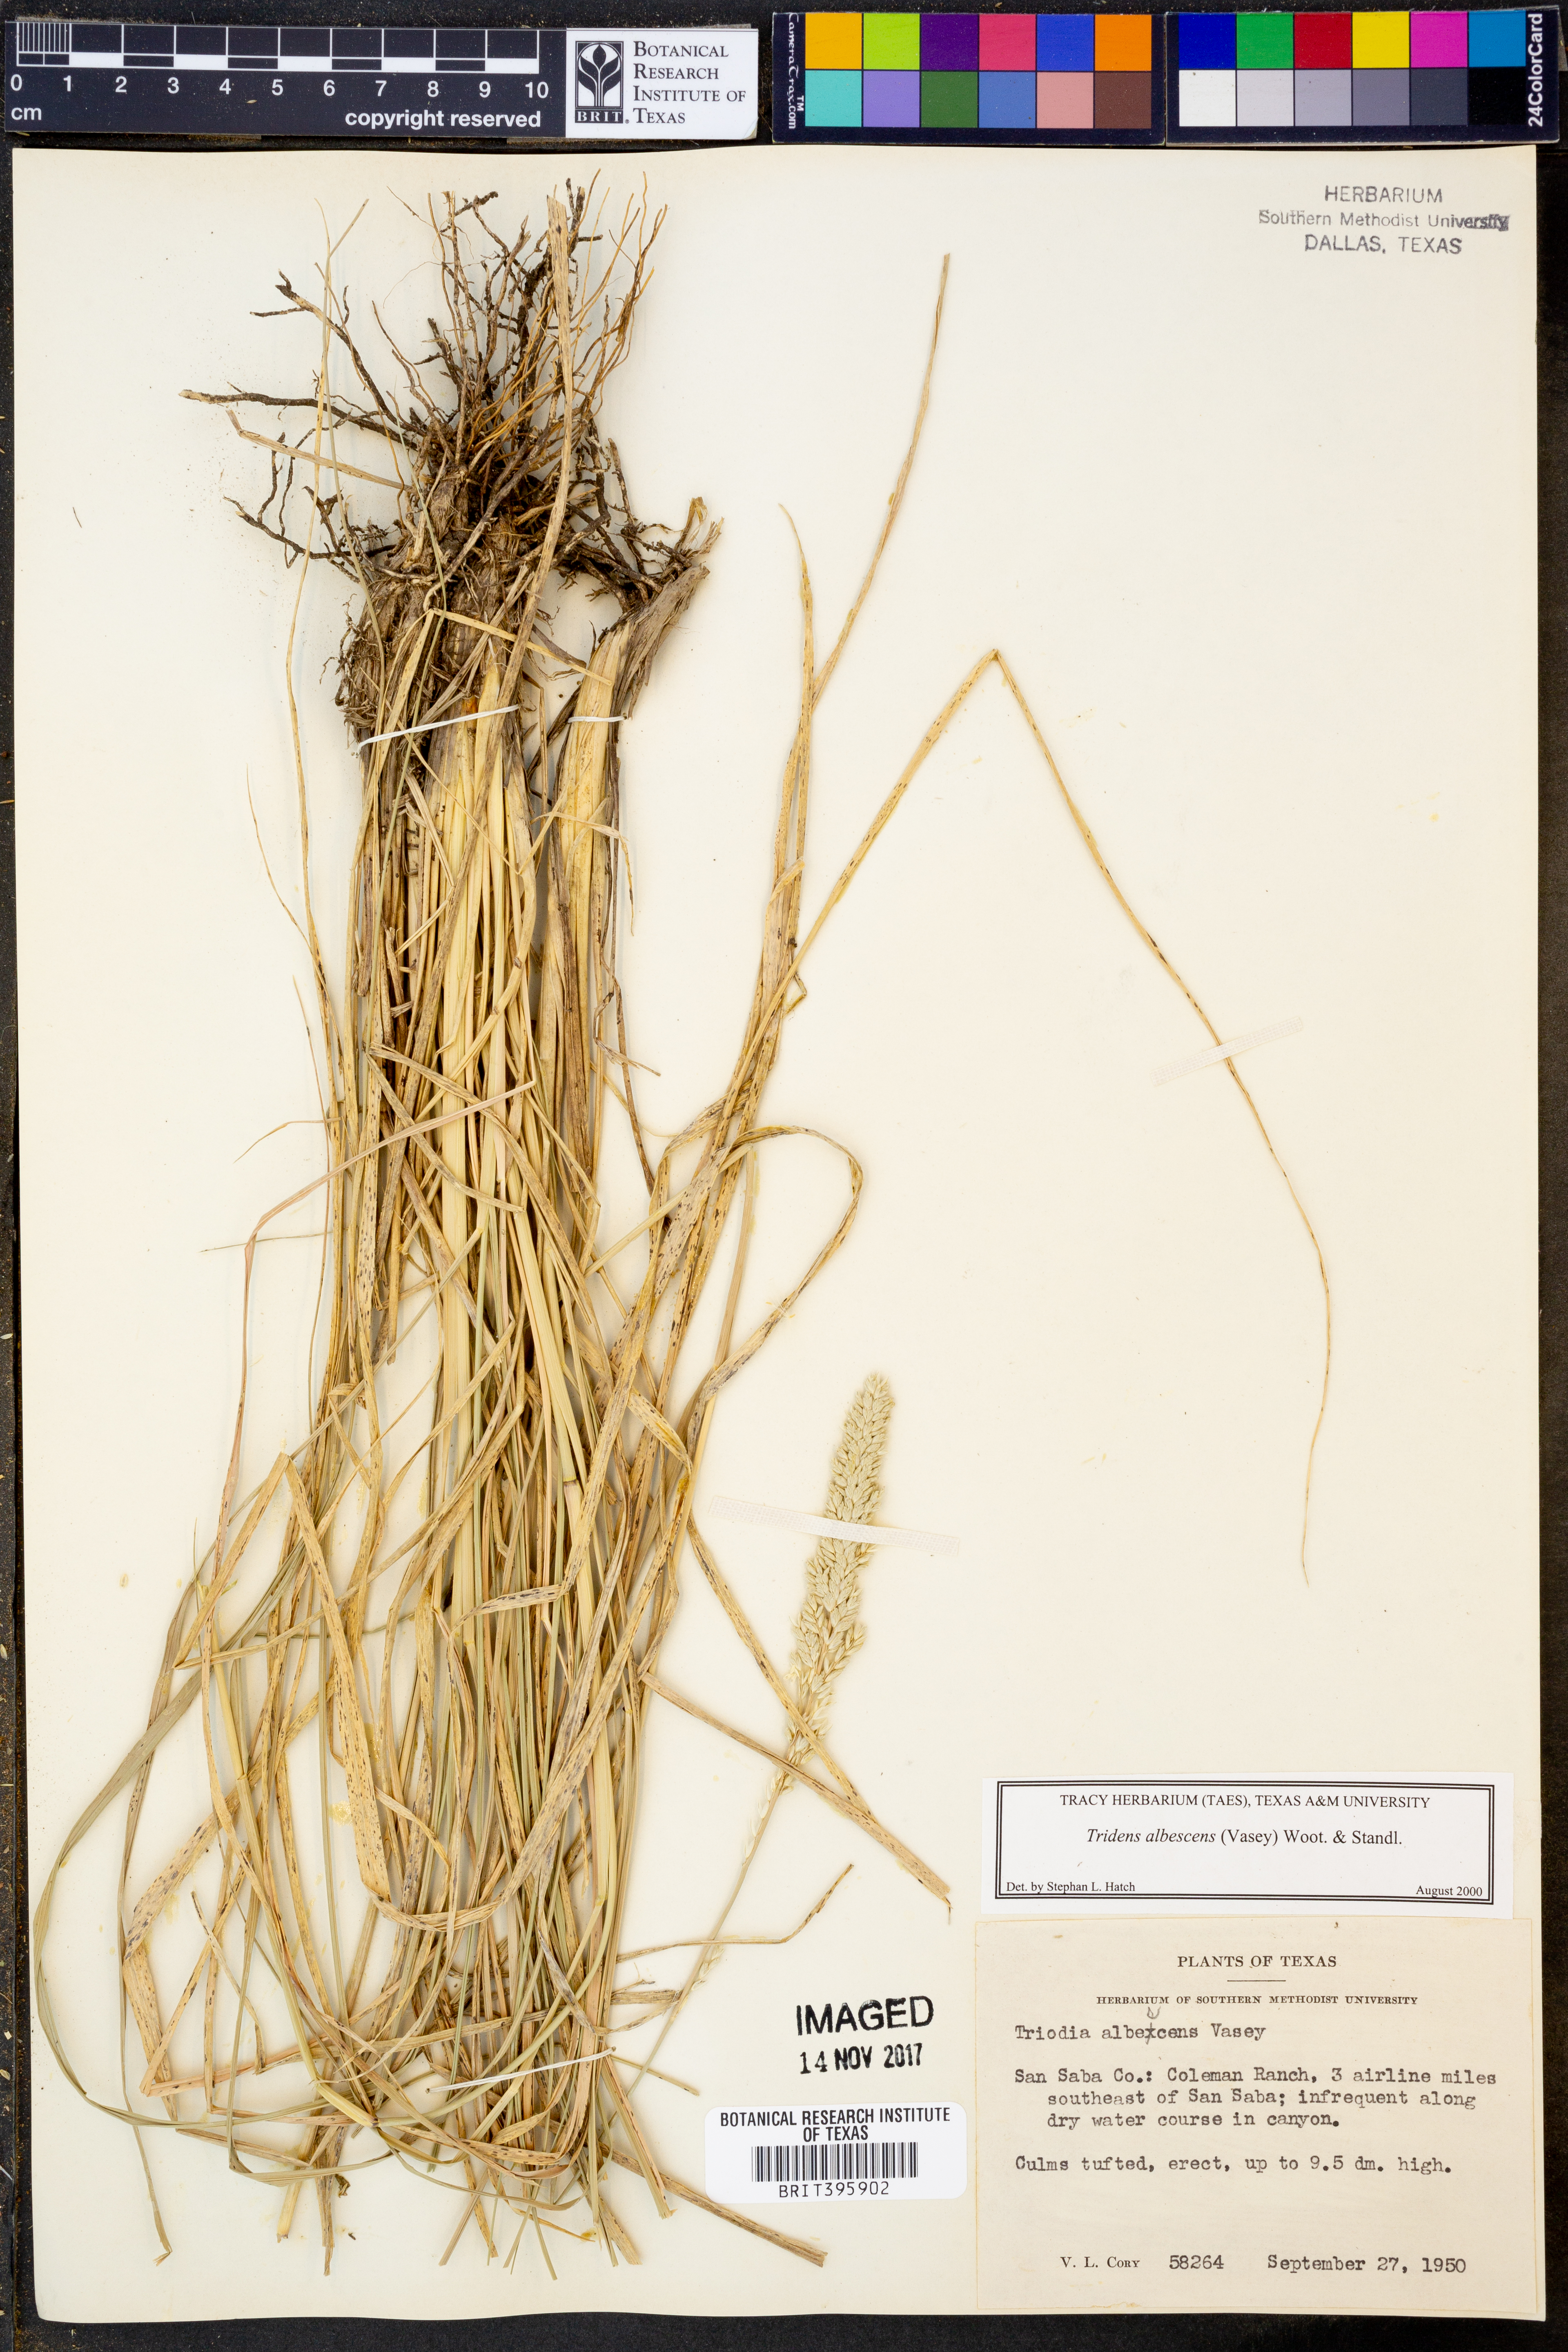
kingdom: Plantae
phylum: Tracheophyta
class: Liliopsida
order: Poales
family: Poaceae
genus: Tridens
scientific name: Tridens albescens
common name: White tridens
